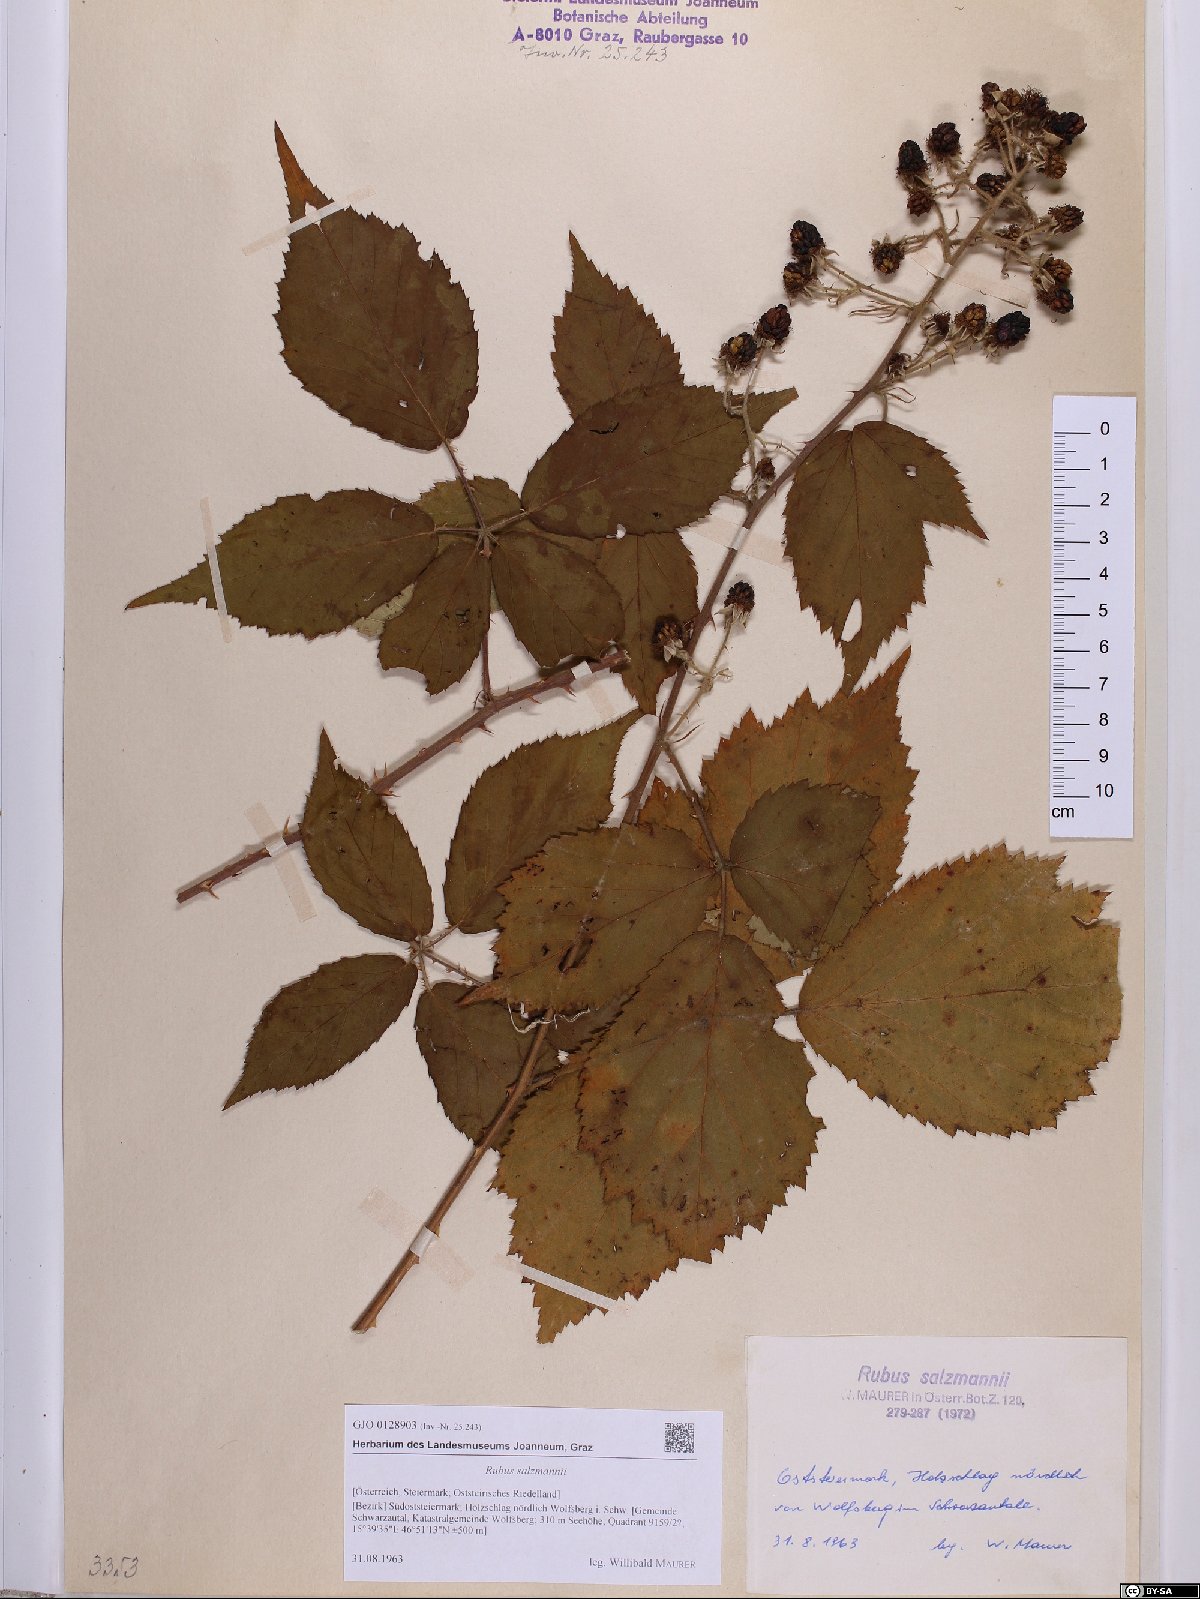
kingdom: Plantae
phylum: Tracheophyta
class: Magnoliopsida
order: Rosales
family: Rosaceae
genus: Rubus
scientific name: Rubus salzmannii
